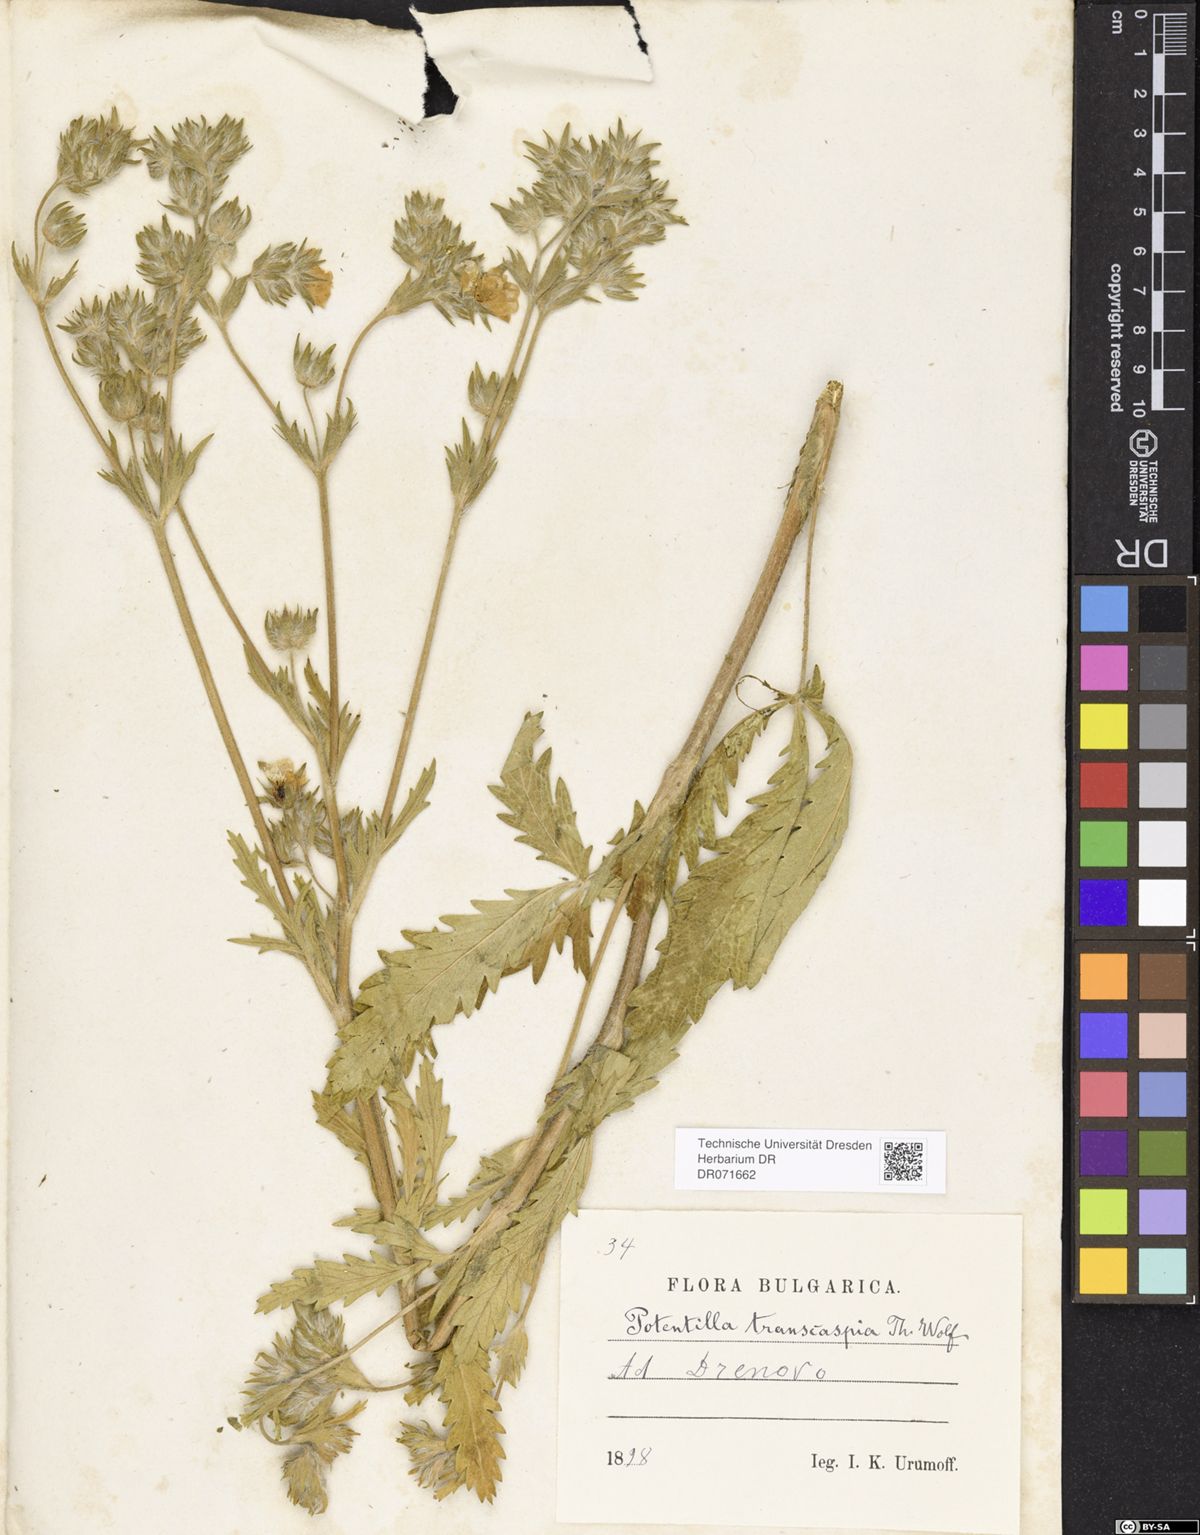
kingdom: Plantae
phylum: Tracheophyta
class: Magnoliopsida
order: Rosales
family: Rosaceae
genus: Potentilla
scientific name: Potentilla pedata
